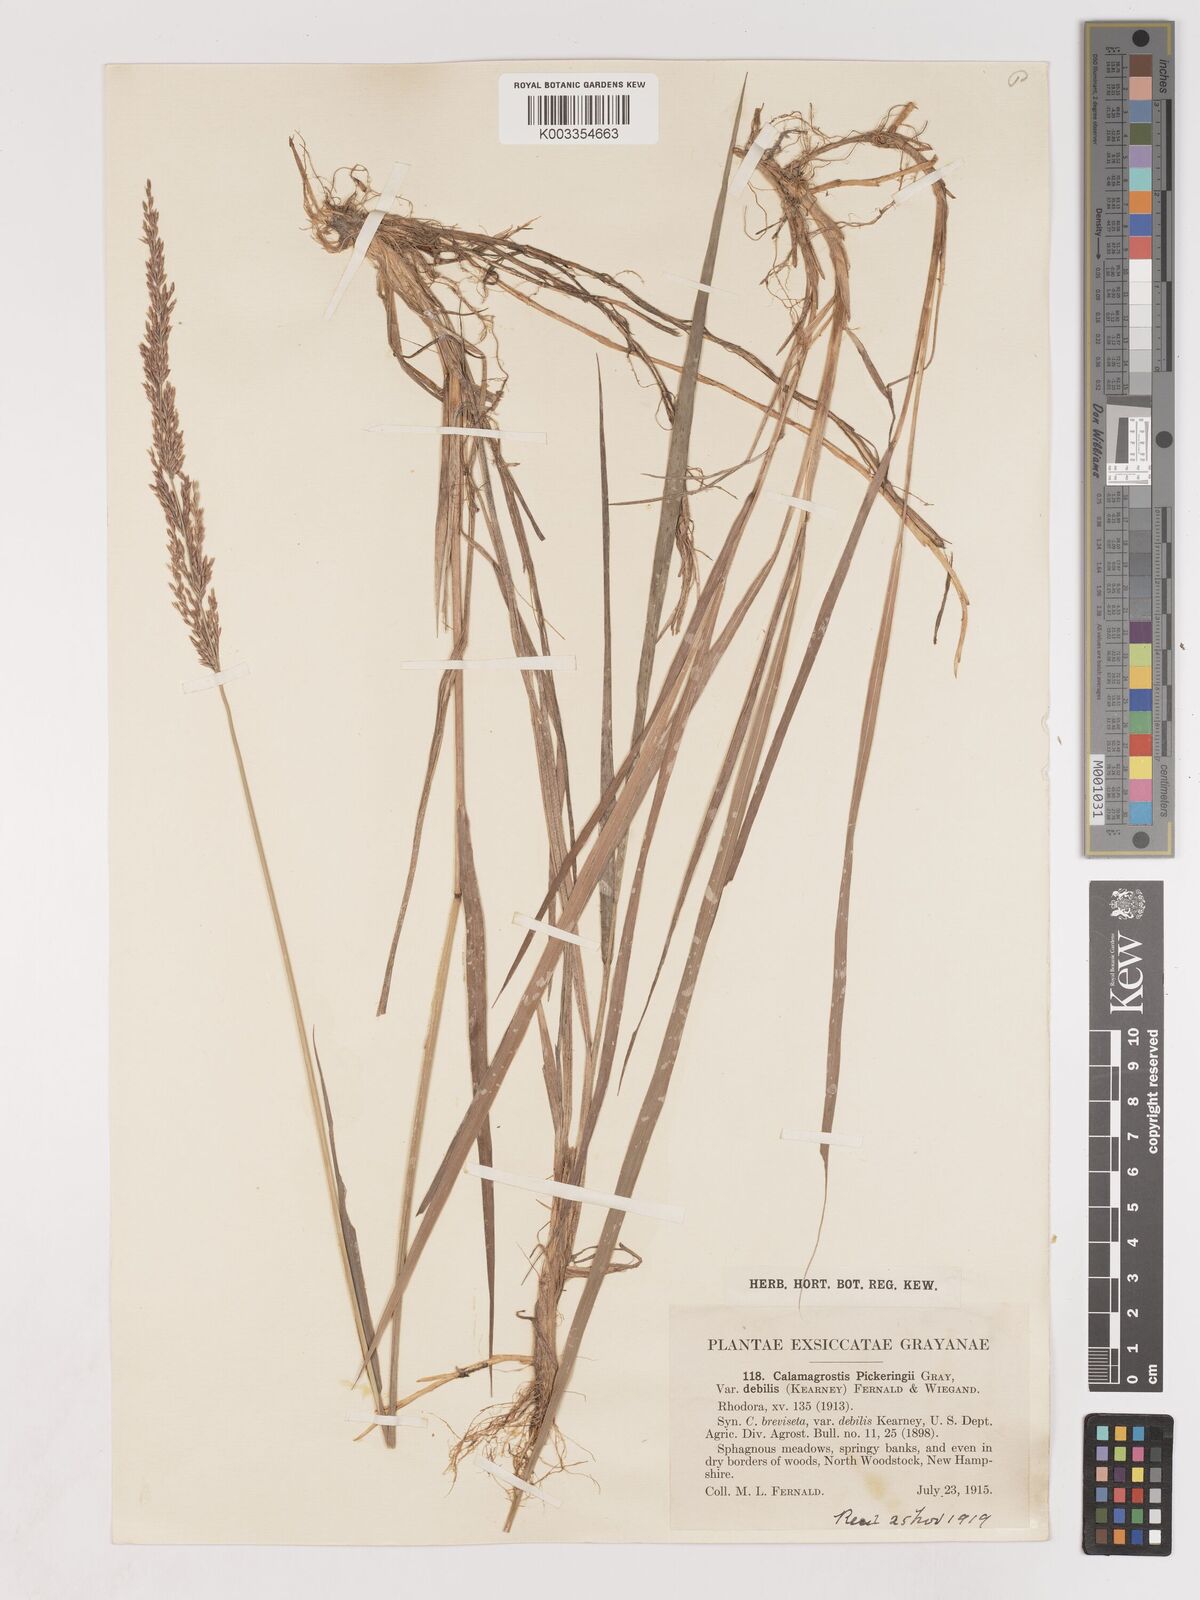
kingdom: Plantae
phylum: Tracheophyta
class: Liliopsida
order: Poales
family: Poaceae
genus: Calamagrostis
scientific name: Calamagrostis pickeringii
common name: Pickering's reed bentgrass
